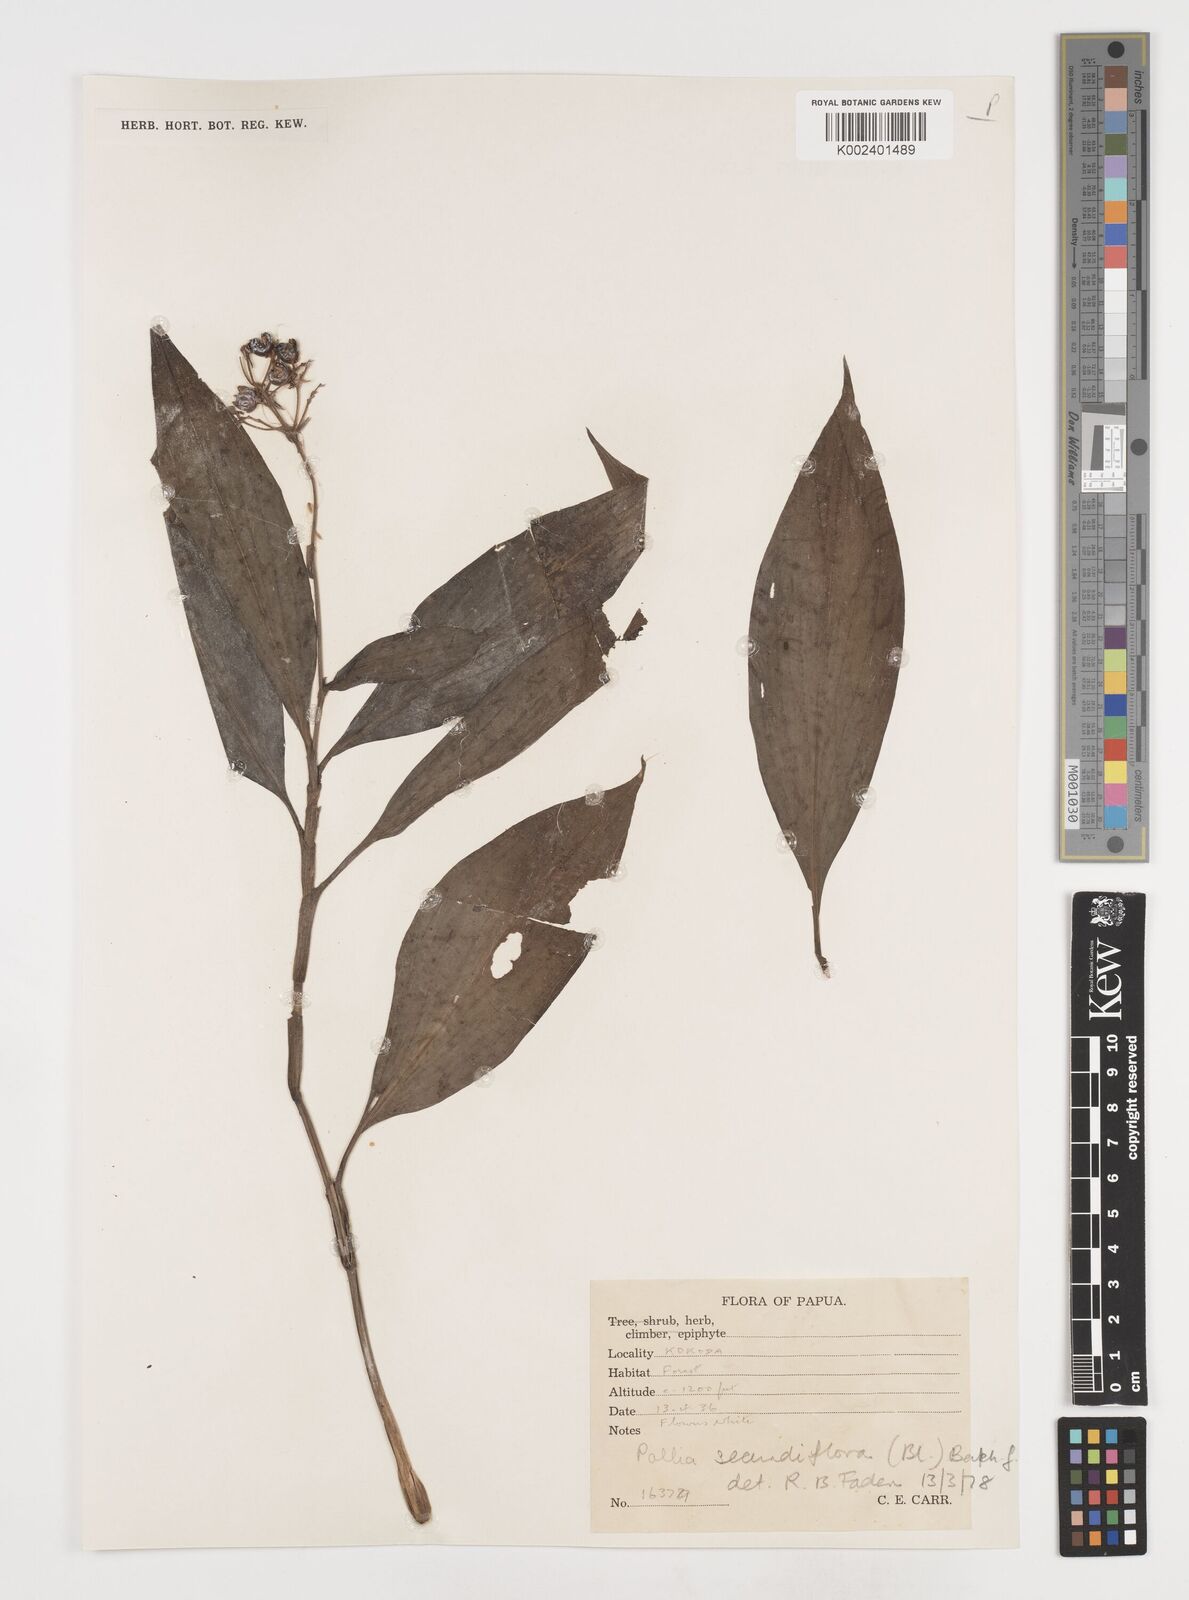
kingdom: Plantae
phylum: Tracheophyta
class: Liliopsida
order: Commelinales
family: Commelinaceae
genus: Pollia
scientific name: Pollia secundiflora
